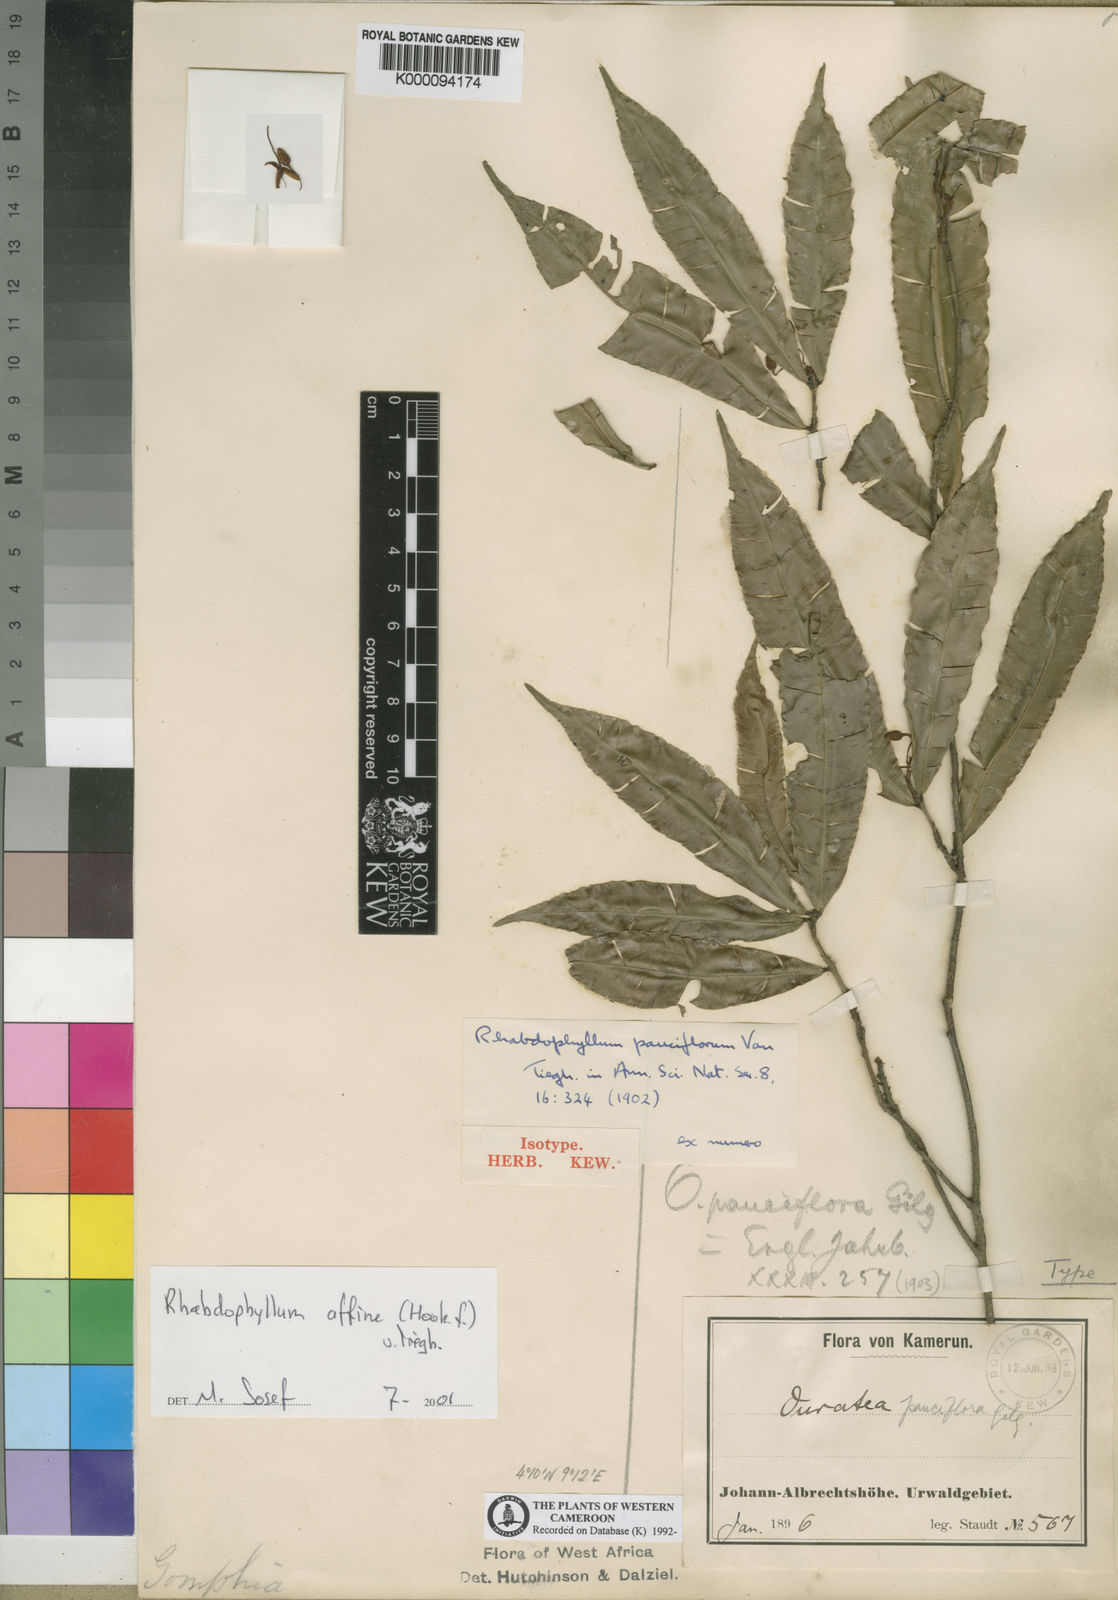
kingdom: Plantae
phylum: Tracheophyta
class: Magnoliopsida
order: Malpighiales
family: Ochnaceae
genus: Rhabdophyllum
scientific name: Rhabdophyllum affine
